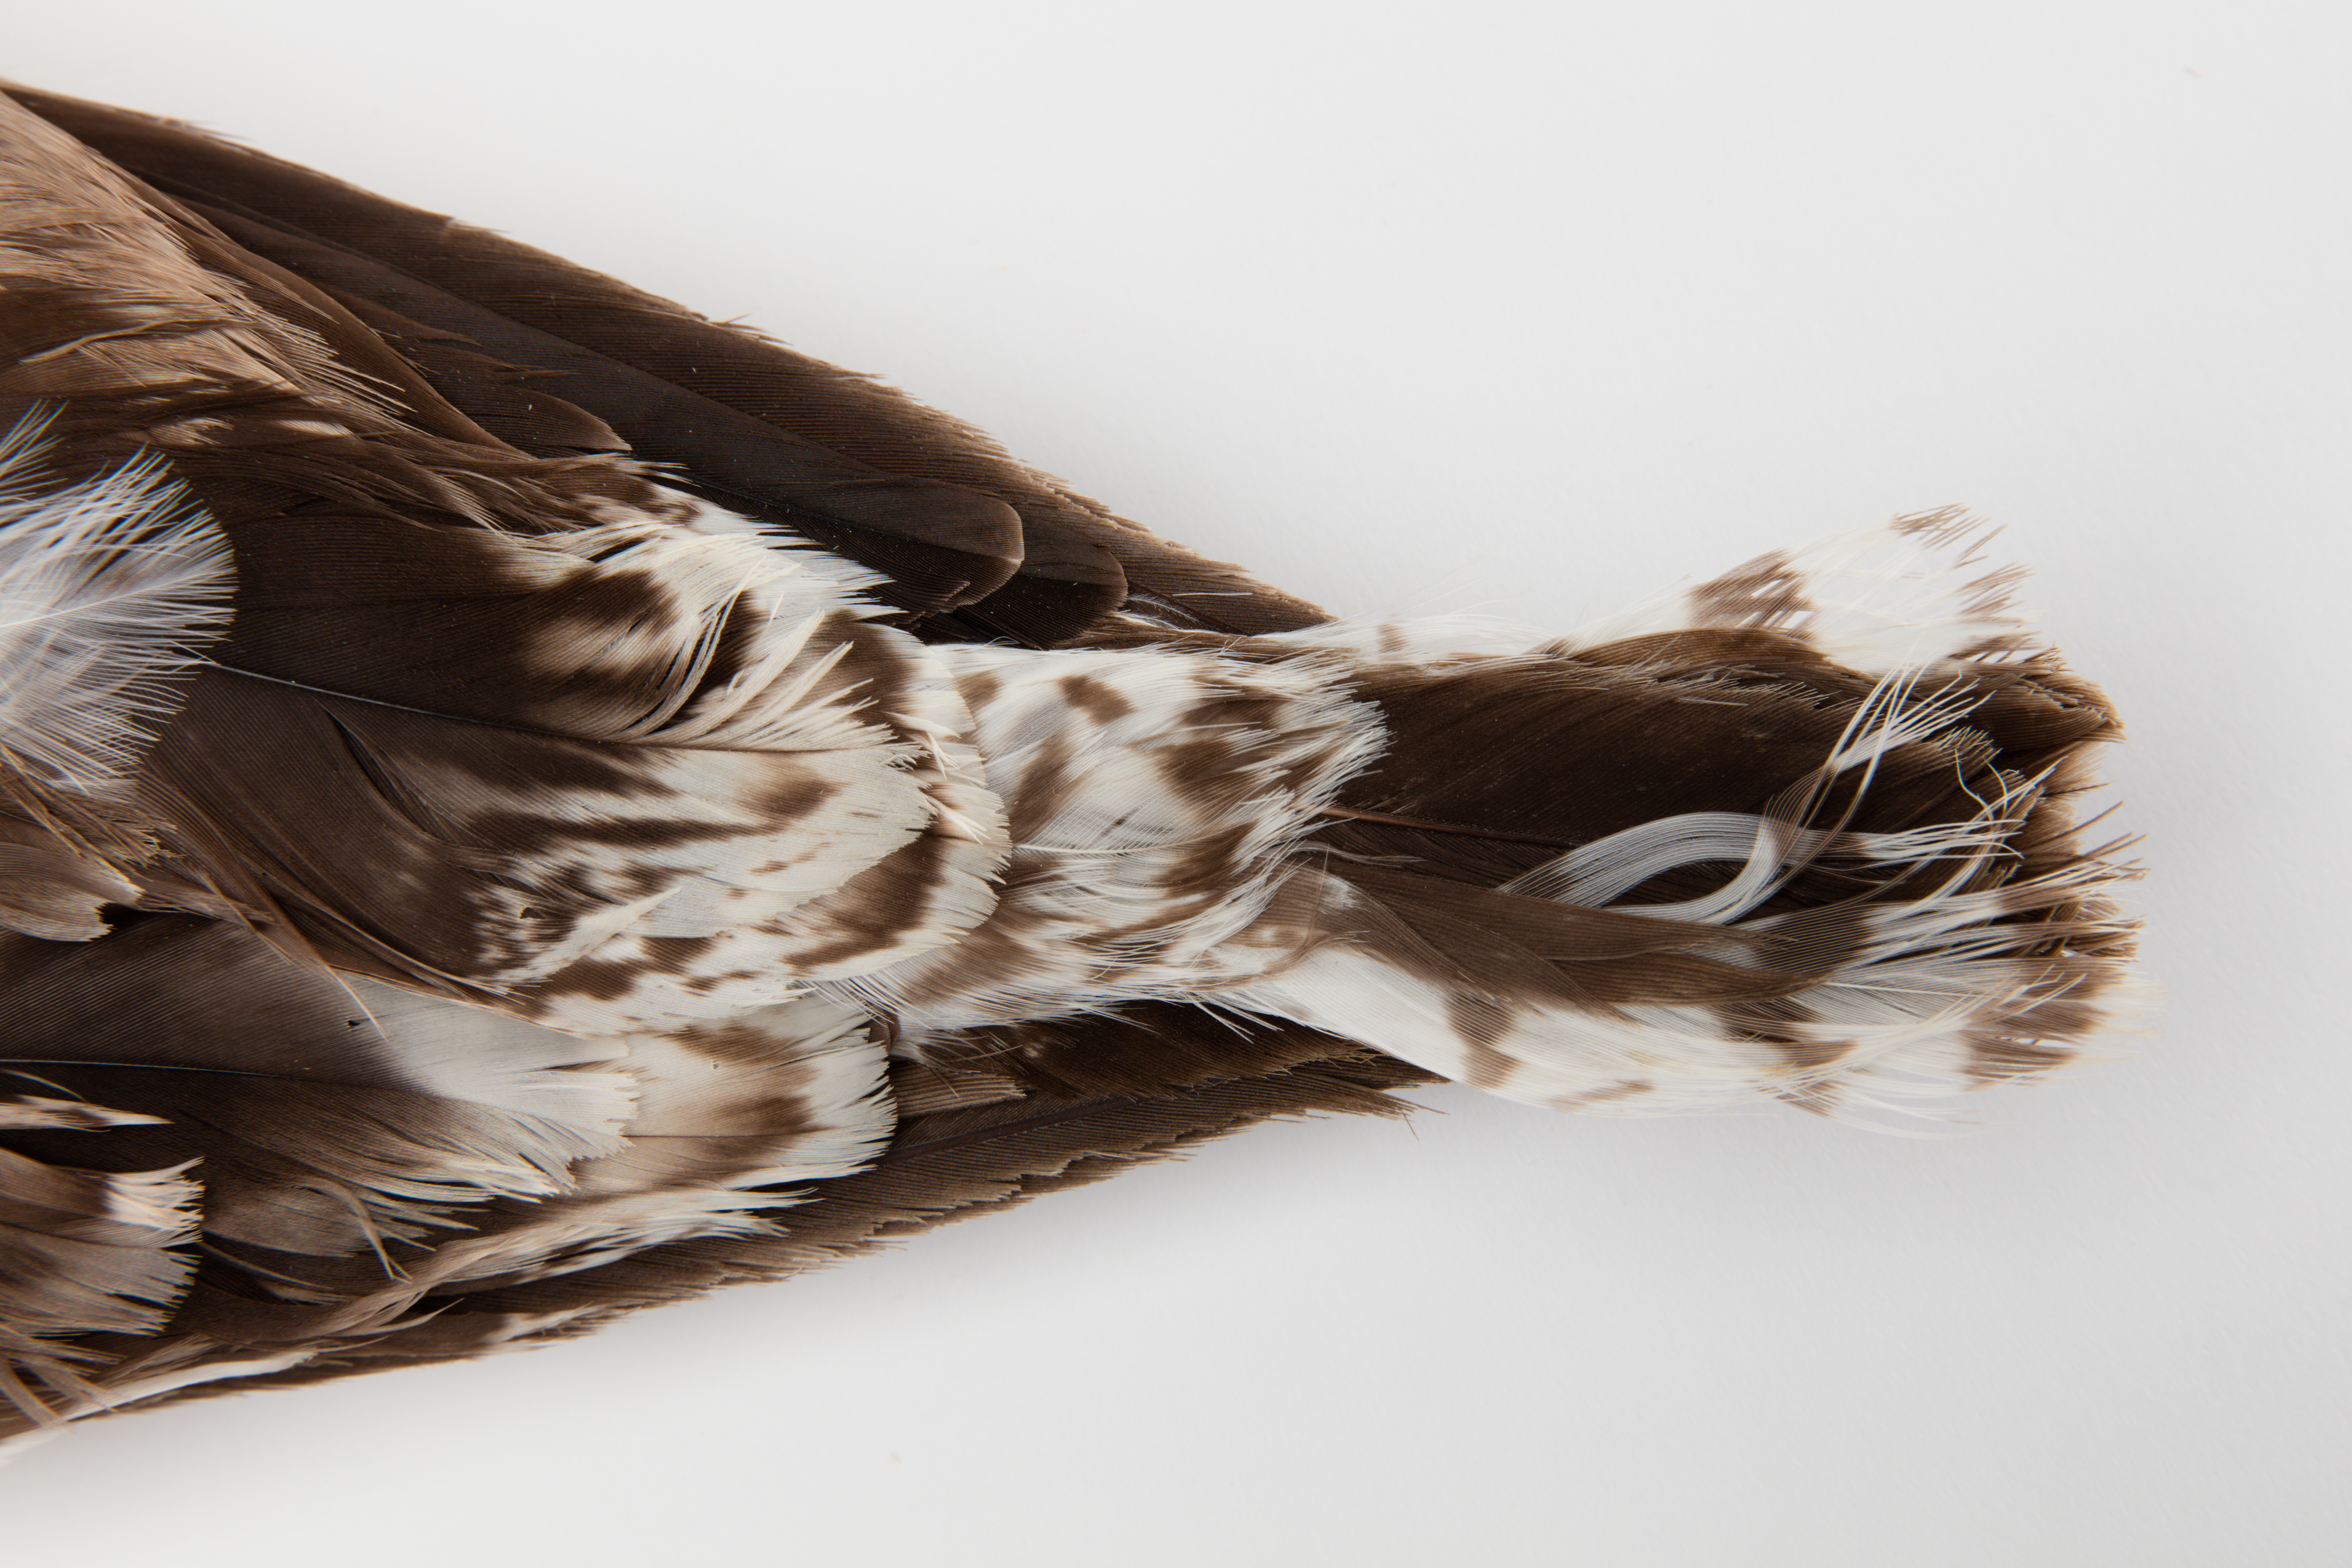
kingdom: Animalia
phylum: Chordata
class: Aves
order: Charadriiformes
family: Laridae
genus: Larus
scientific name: Larus dominicanus
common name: Kelp gull
